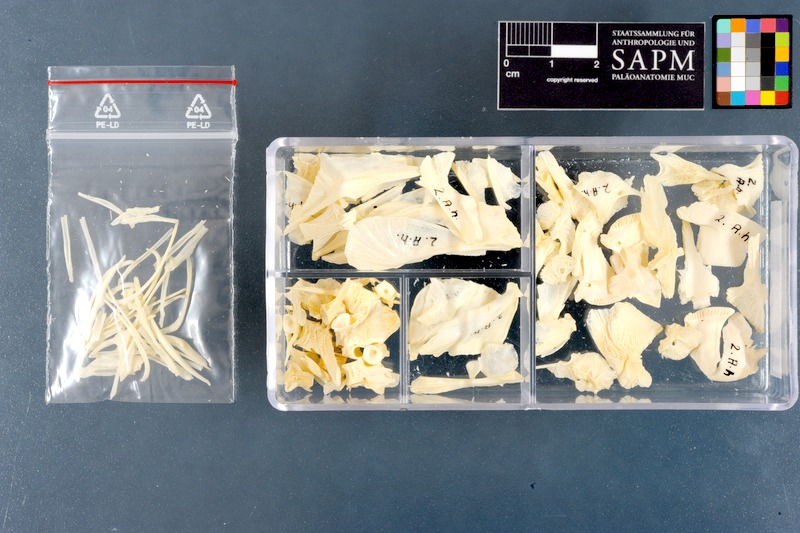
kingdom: Animalia
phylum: Chordata
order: Tetraodontiformes
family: Tetraodontidae
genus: Arothron
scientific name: Arothron hispidus
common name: Stripebelly puffer
